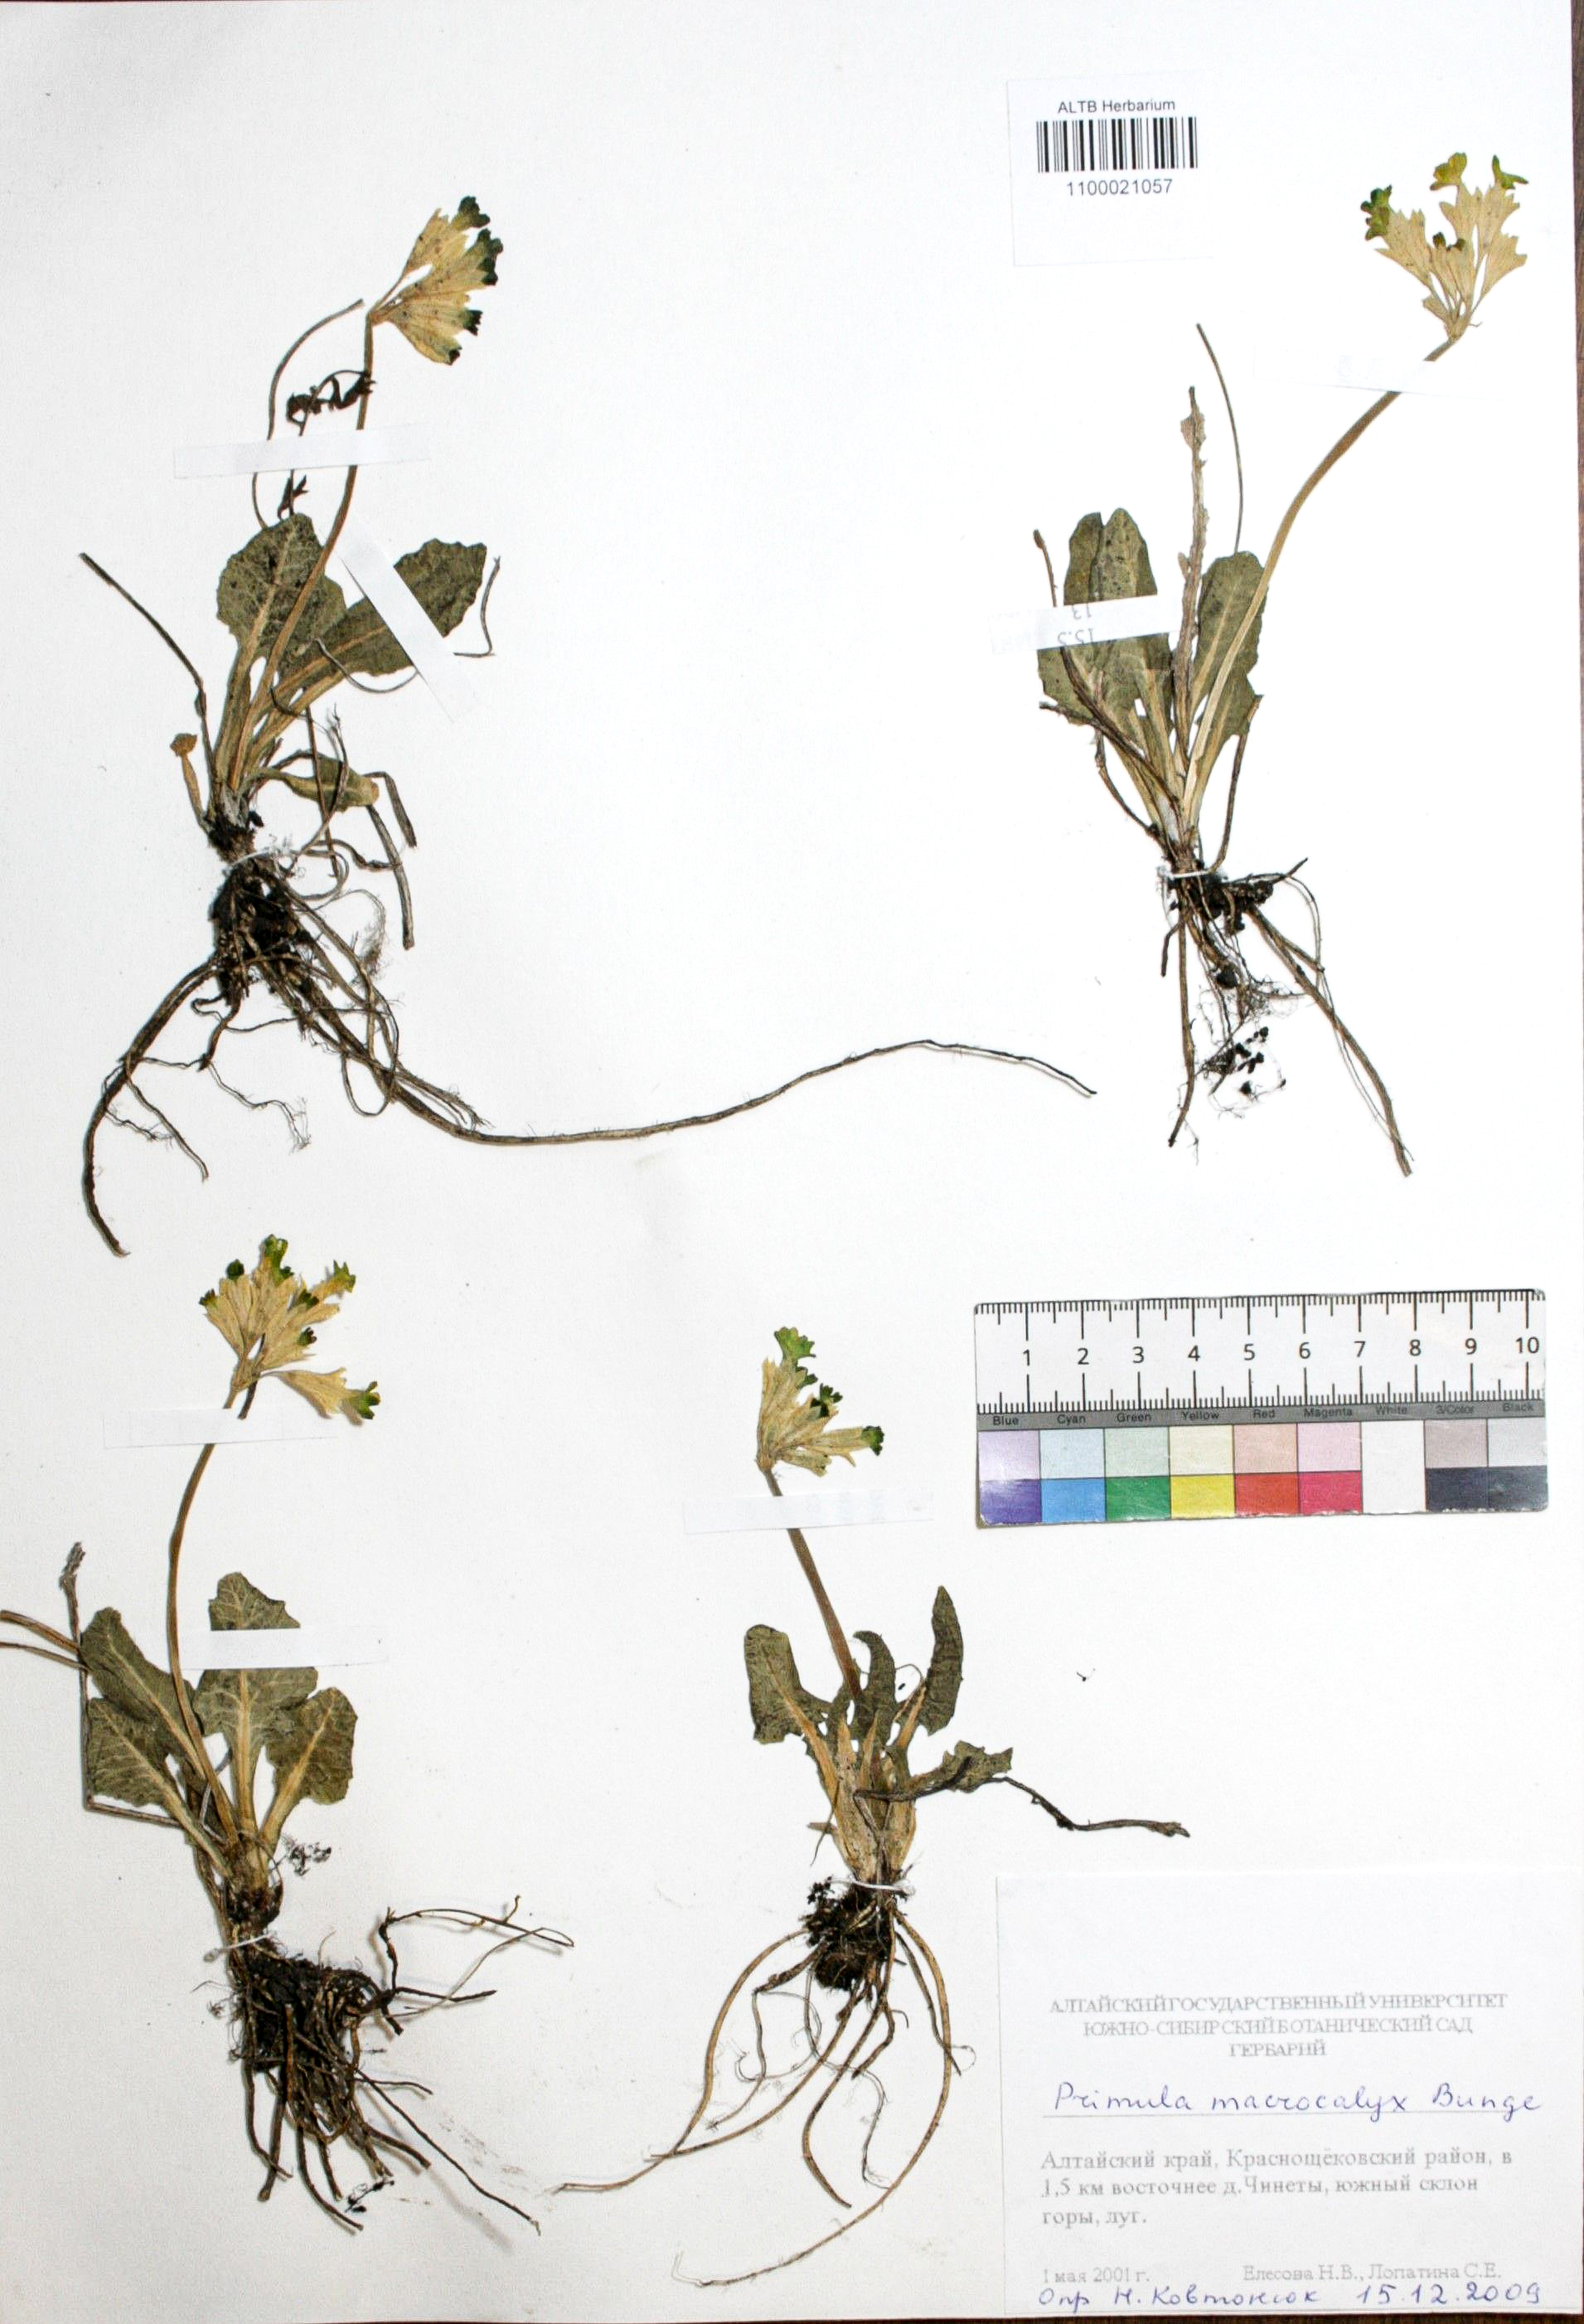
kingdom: Plantae
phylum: Tracheophyta
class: Magnoliopsida
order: Ericales
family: Primulaceae
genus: Primula
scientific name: Primula veris
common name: Cowslip
